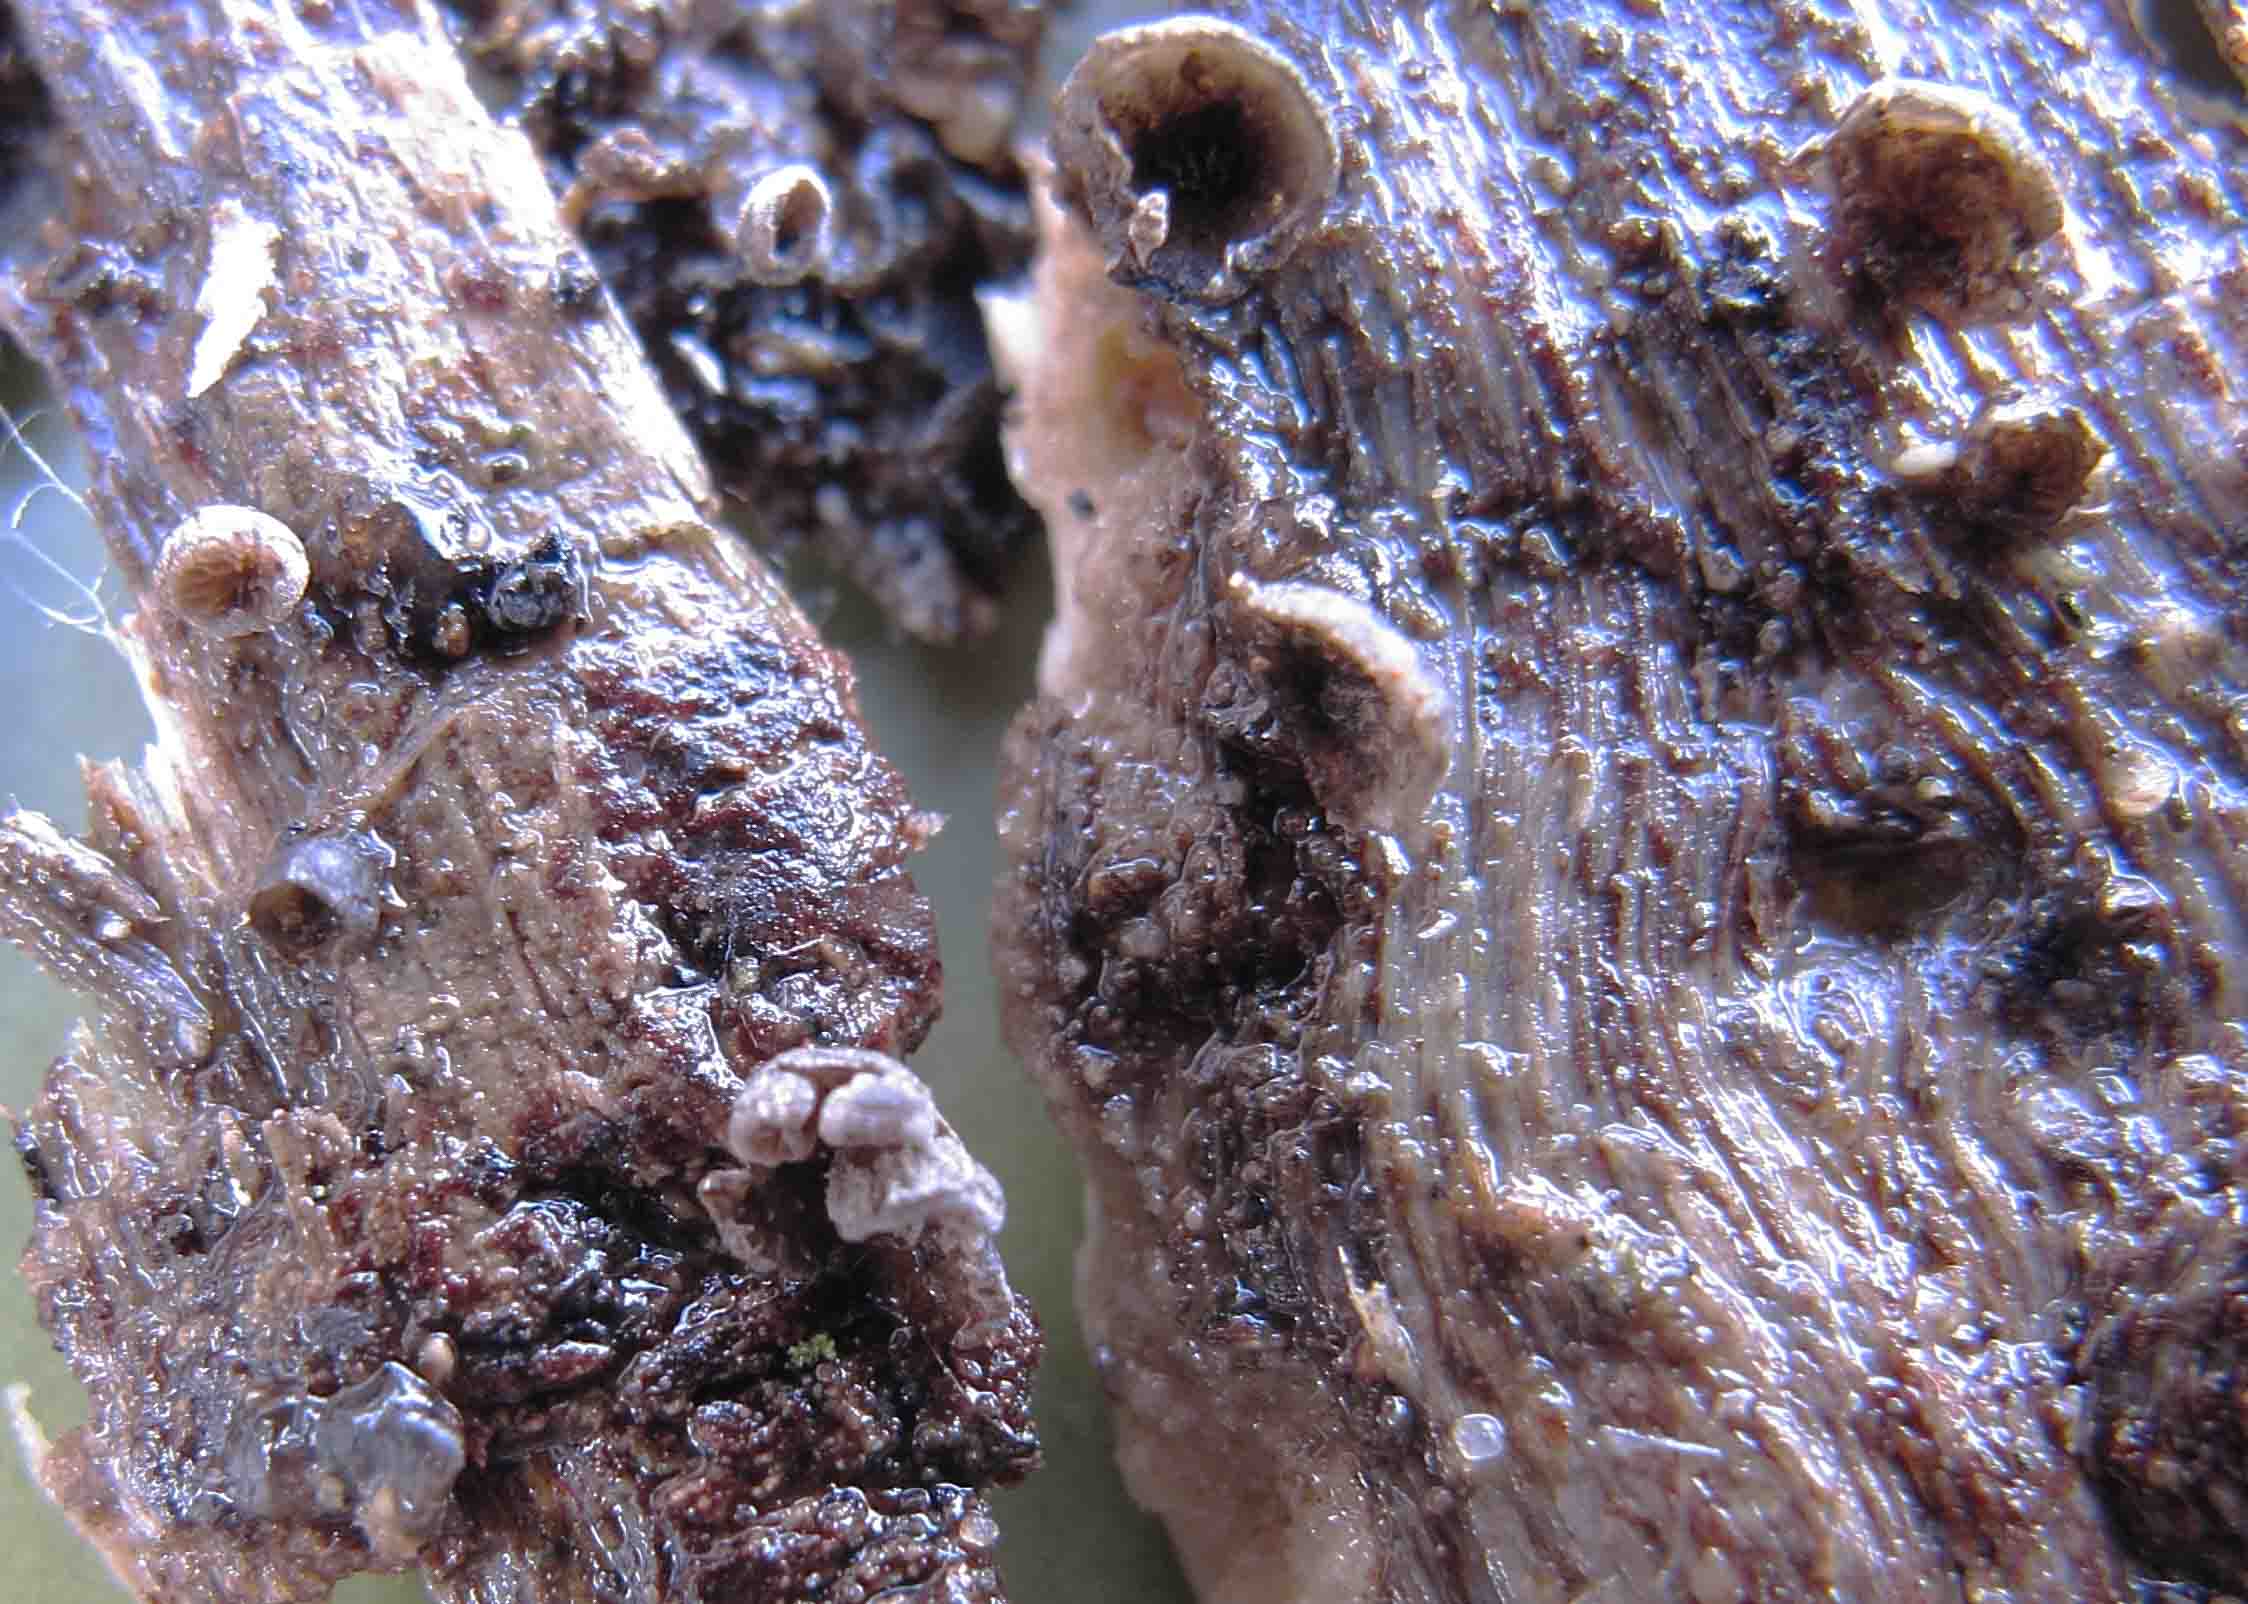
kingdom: Fungi
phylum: Basidiomycota
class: Agaricomycetes
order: Agaricales
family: Pleurotaceae
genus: Resupinatus
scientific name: Resupinatus applicatus
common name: lysfiltet barkhat
